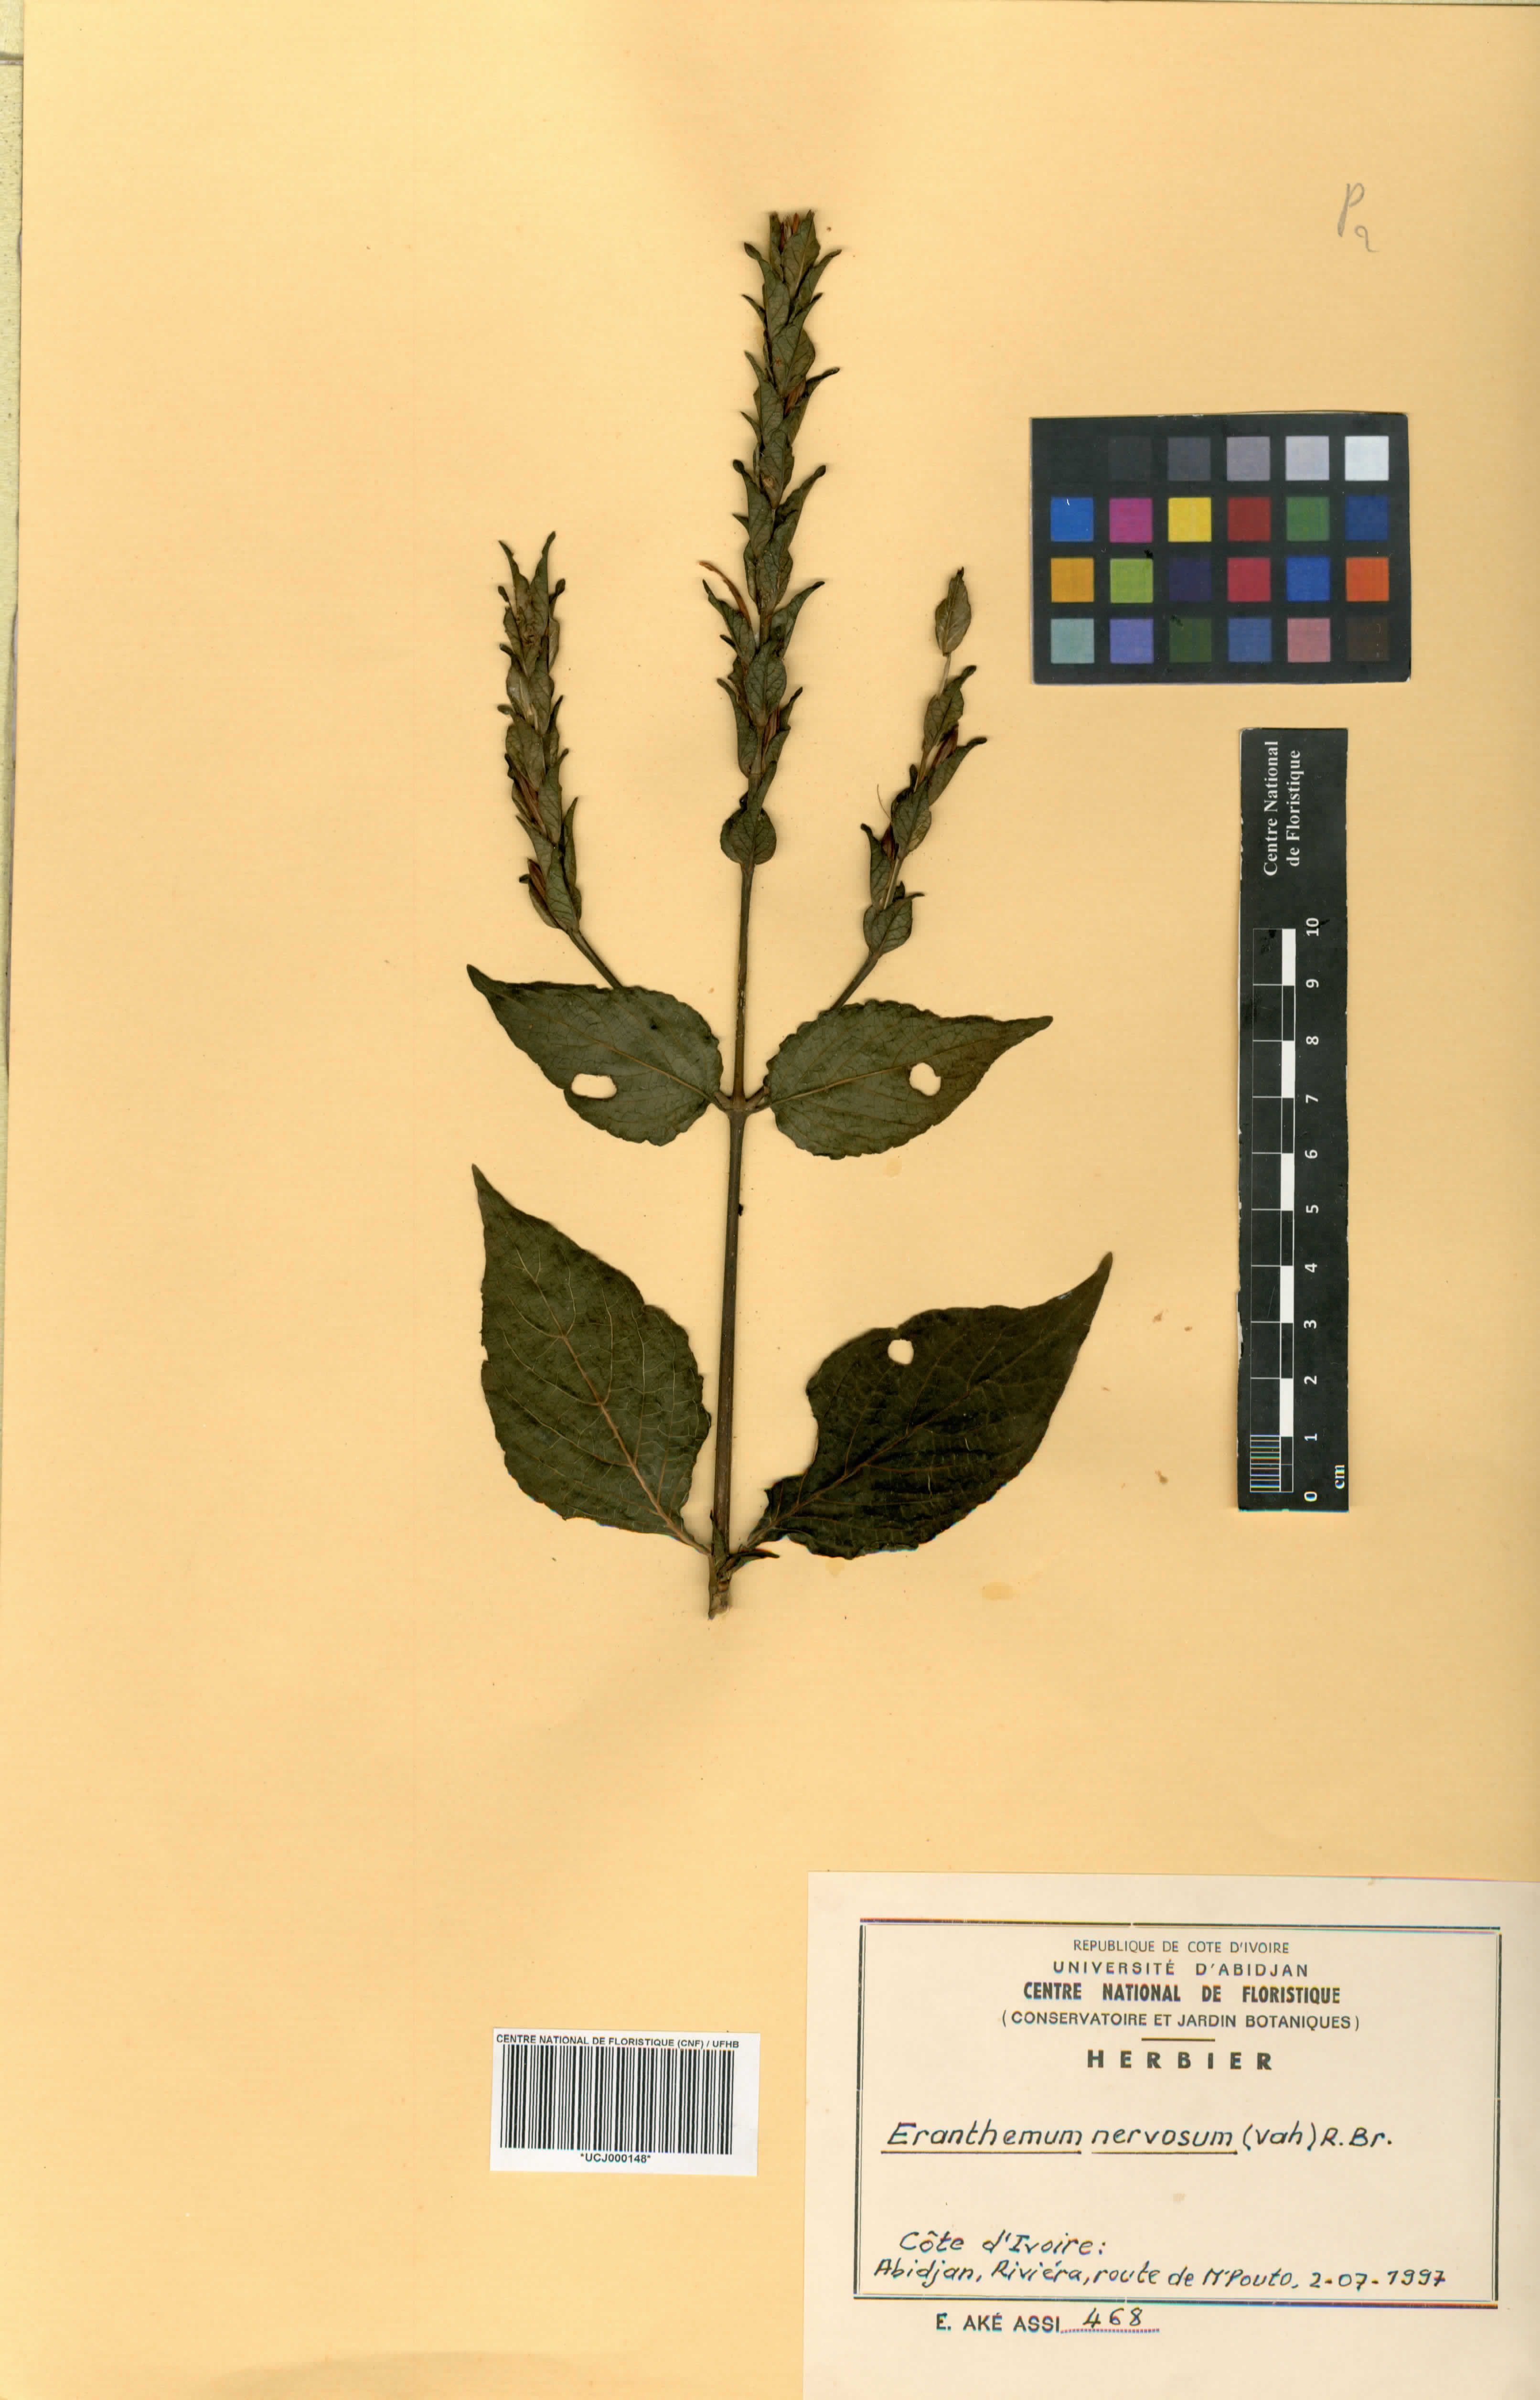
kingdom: Plantae
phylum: Tracheophyta
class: Magnoliopsida
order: Lamiales
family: Acanthaceae
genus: Eranthemum
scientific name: Eranthemum
